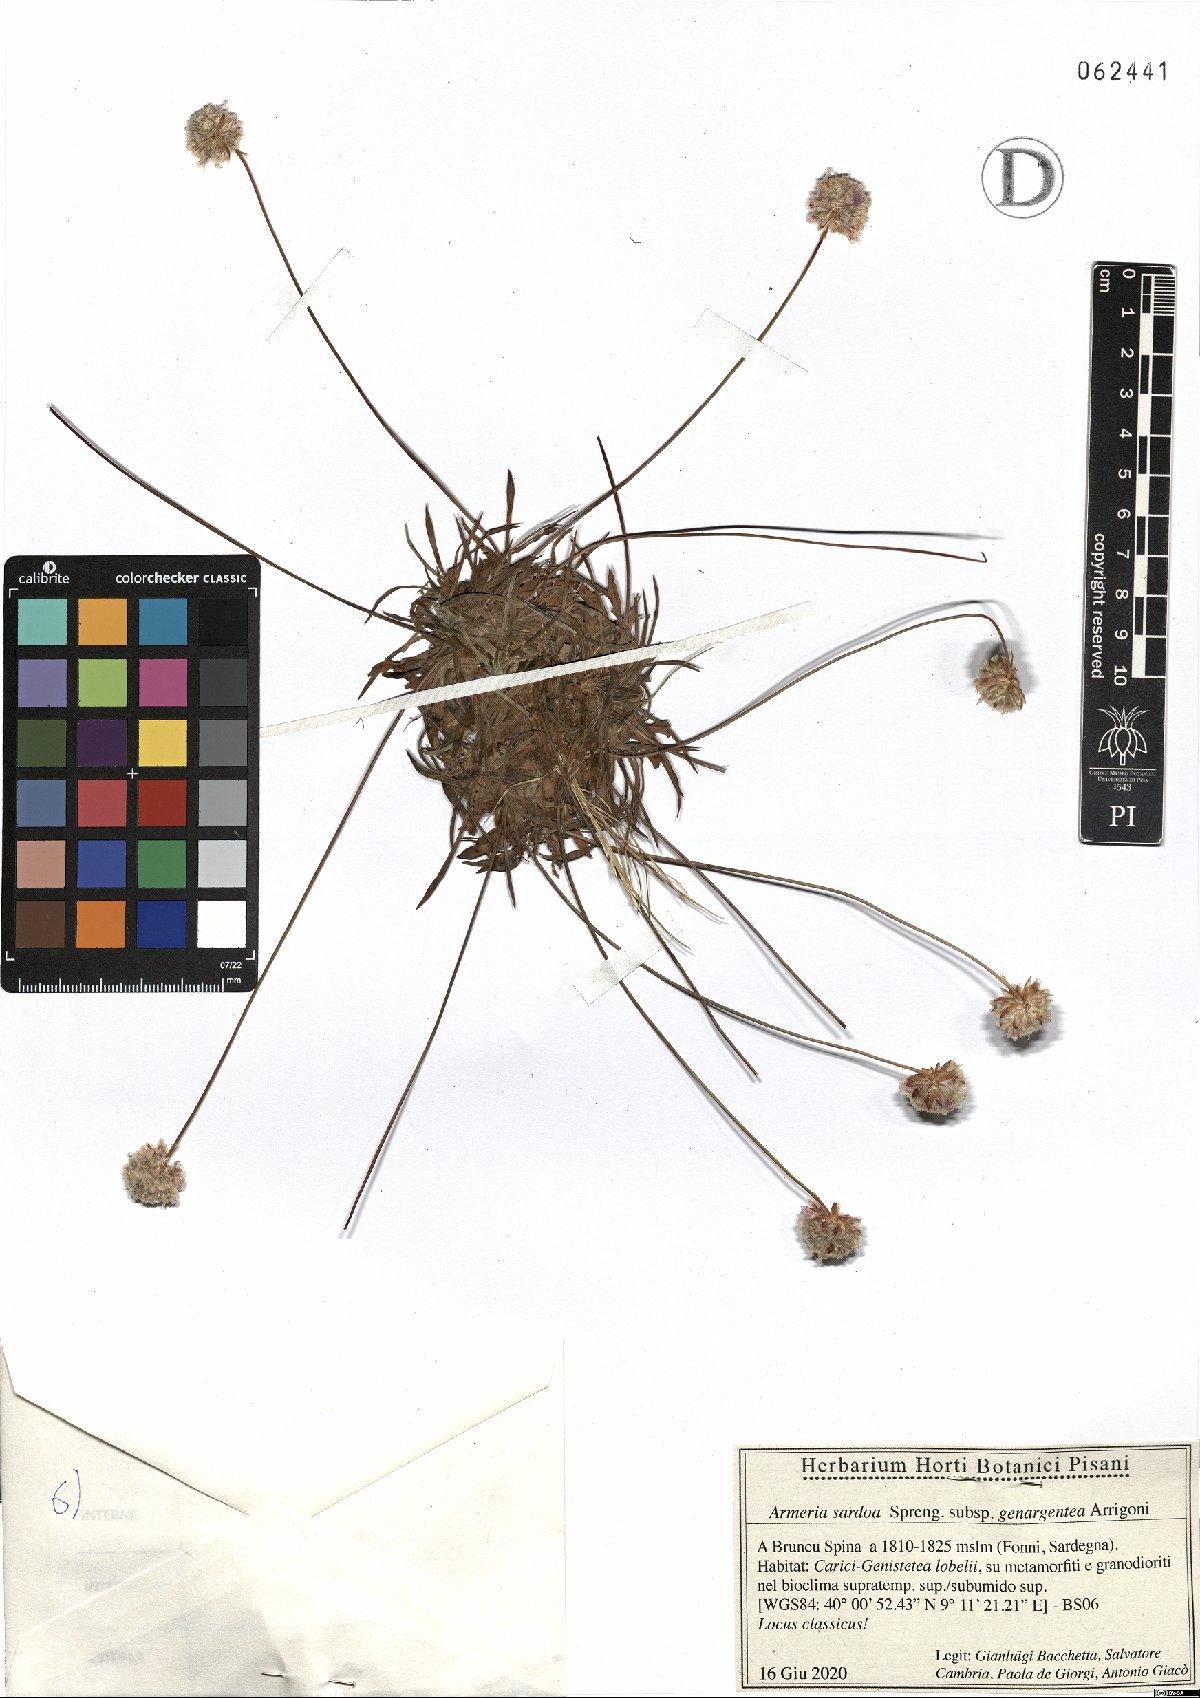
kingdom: Plantae
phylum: Tracheophyta
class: Magnoliopsida
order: Caryophyllales
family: Plumbaginaceae
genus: Armeria
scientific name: Armeria sardoa
